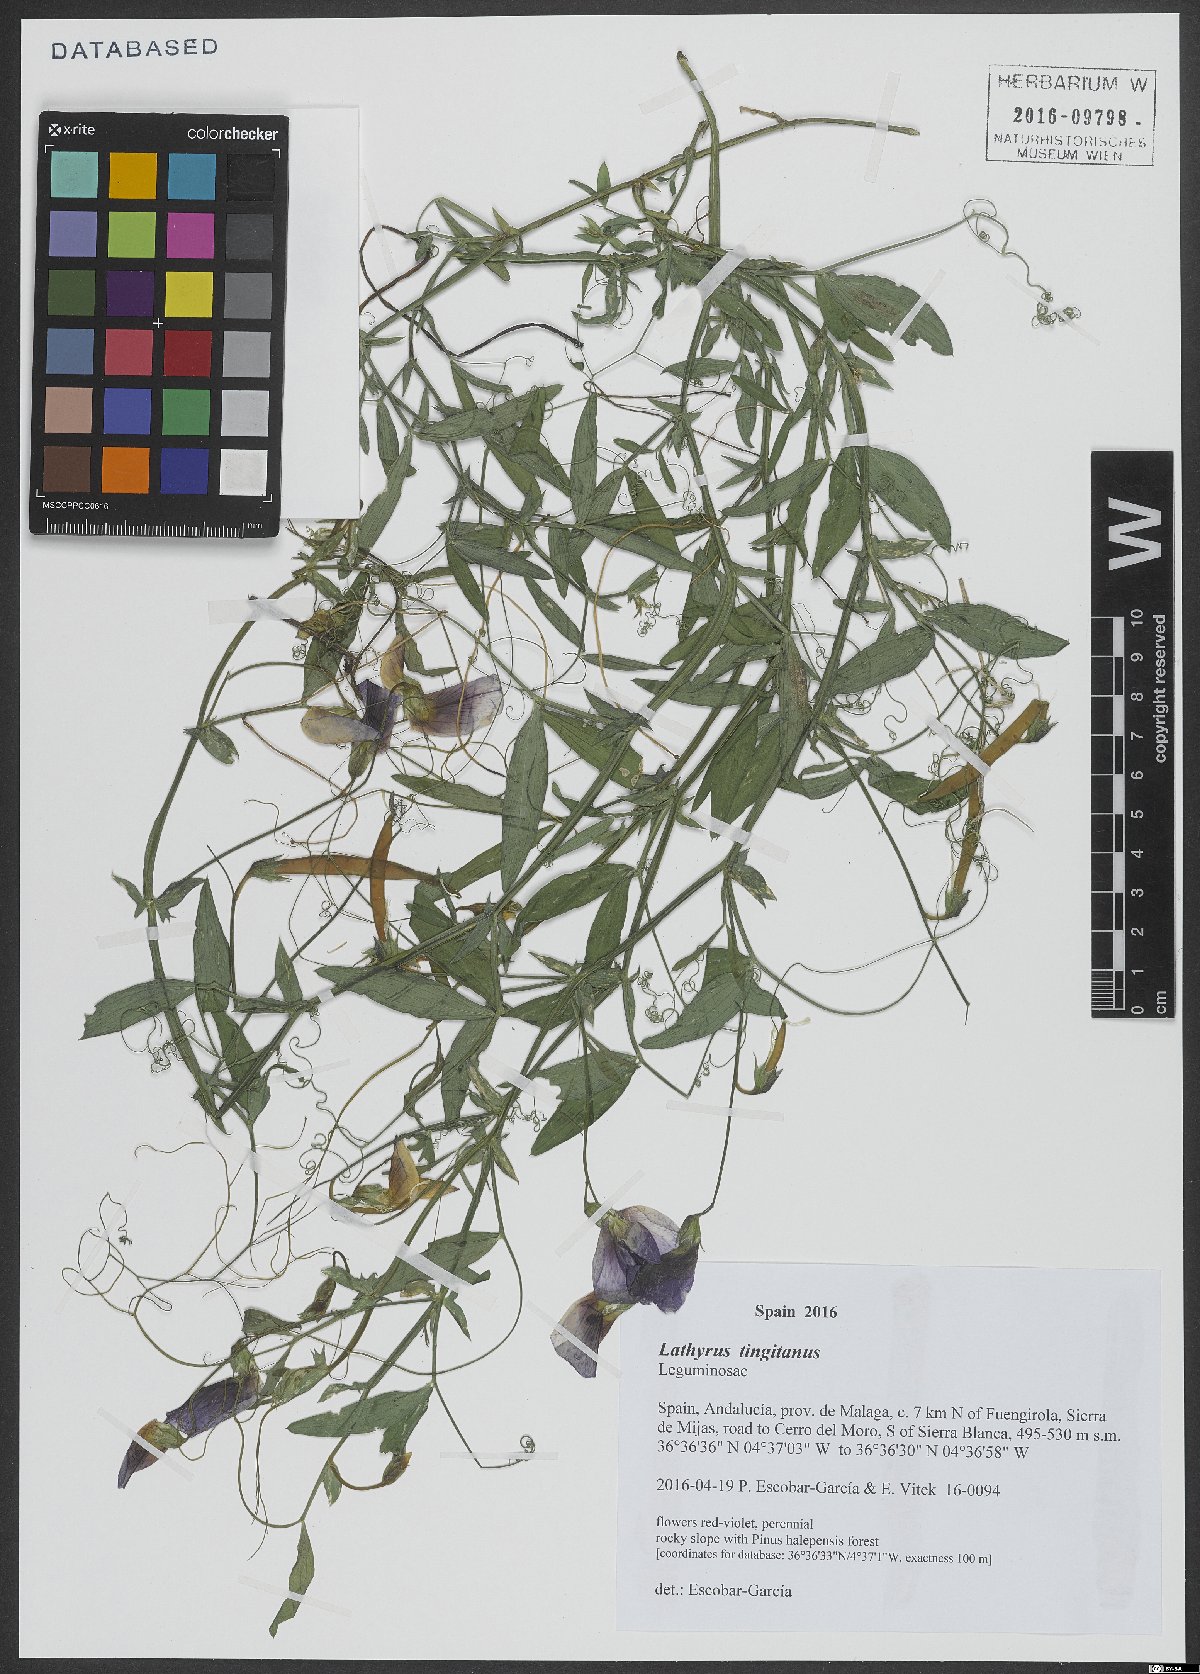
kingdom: Plantae
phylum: Tracheophyta
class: Magnoliopsida
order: Fabales
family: Fabaceae
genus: Lathyrus
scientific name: Lathyrus tingitanus
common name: Tangier pea
